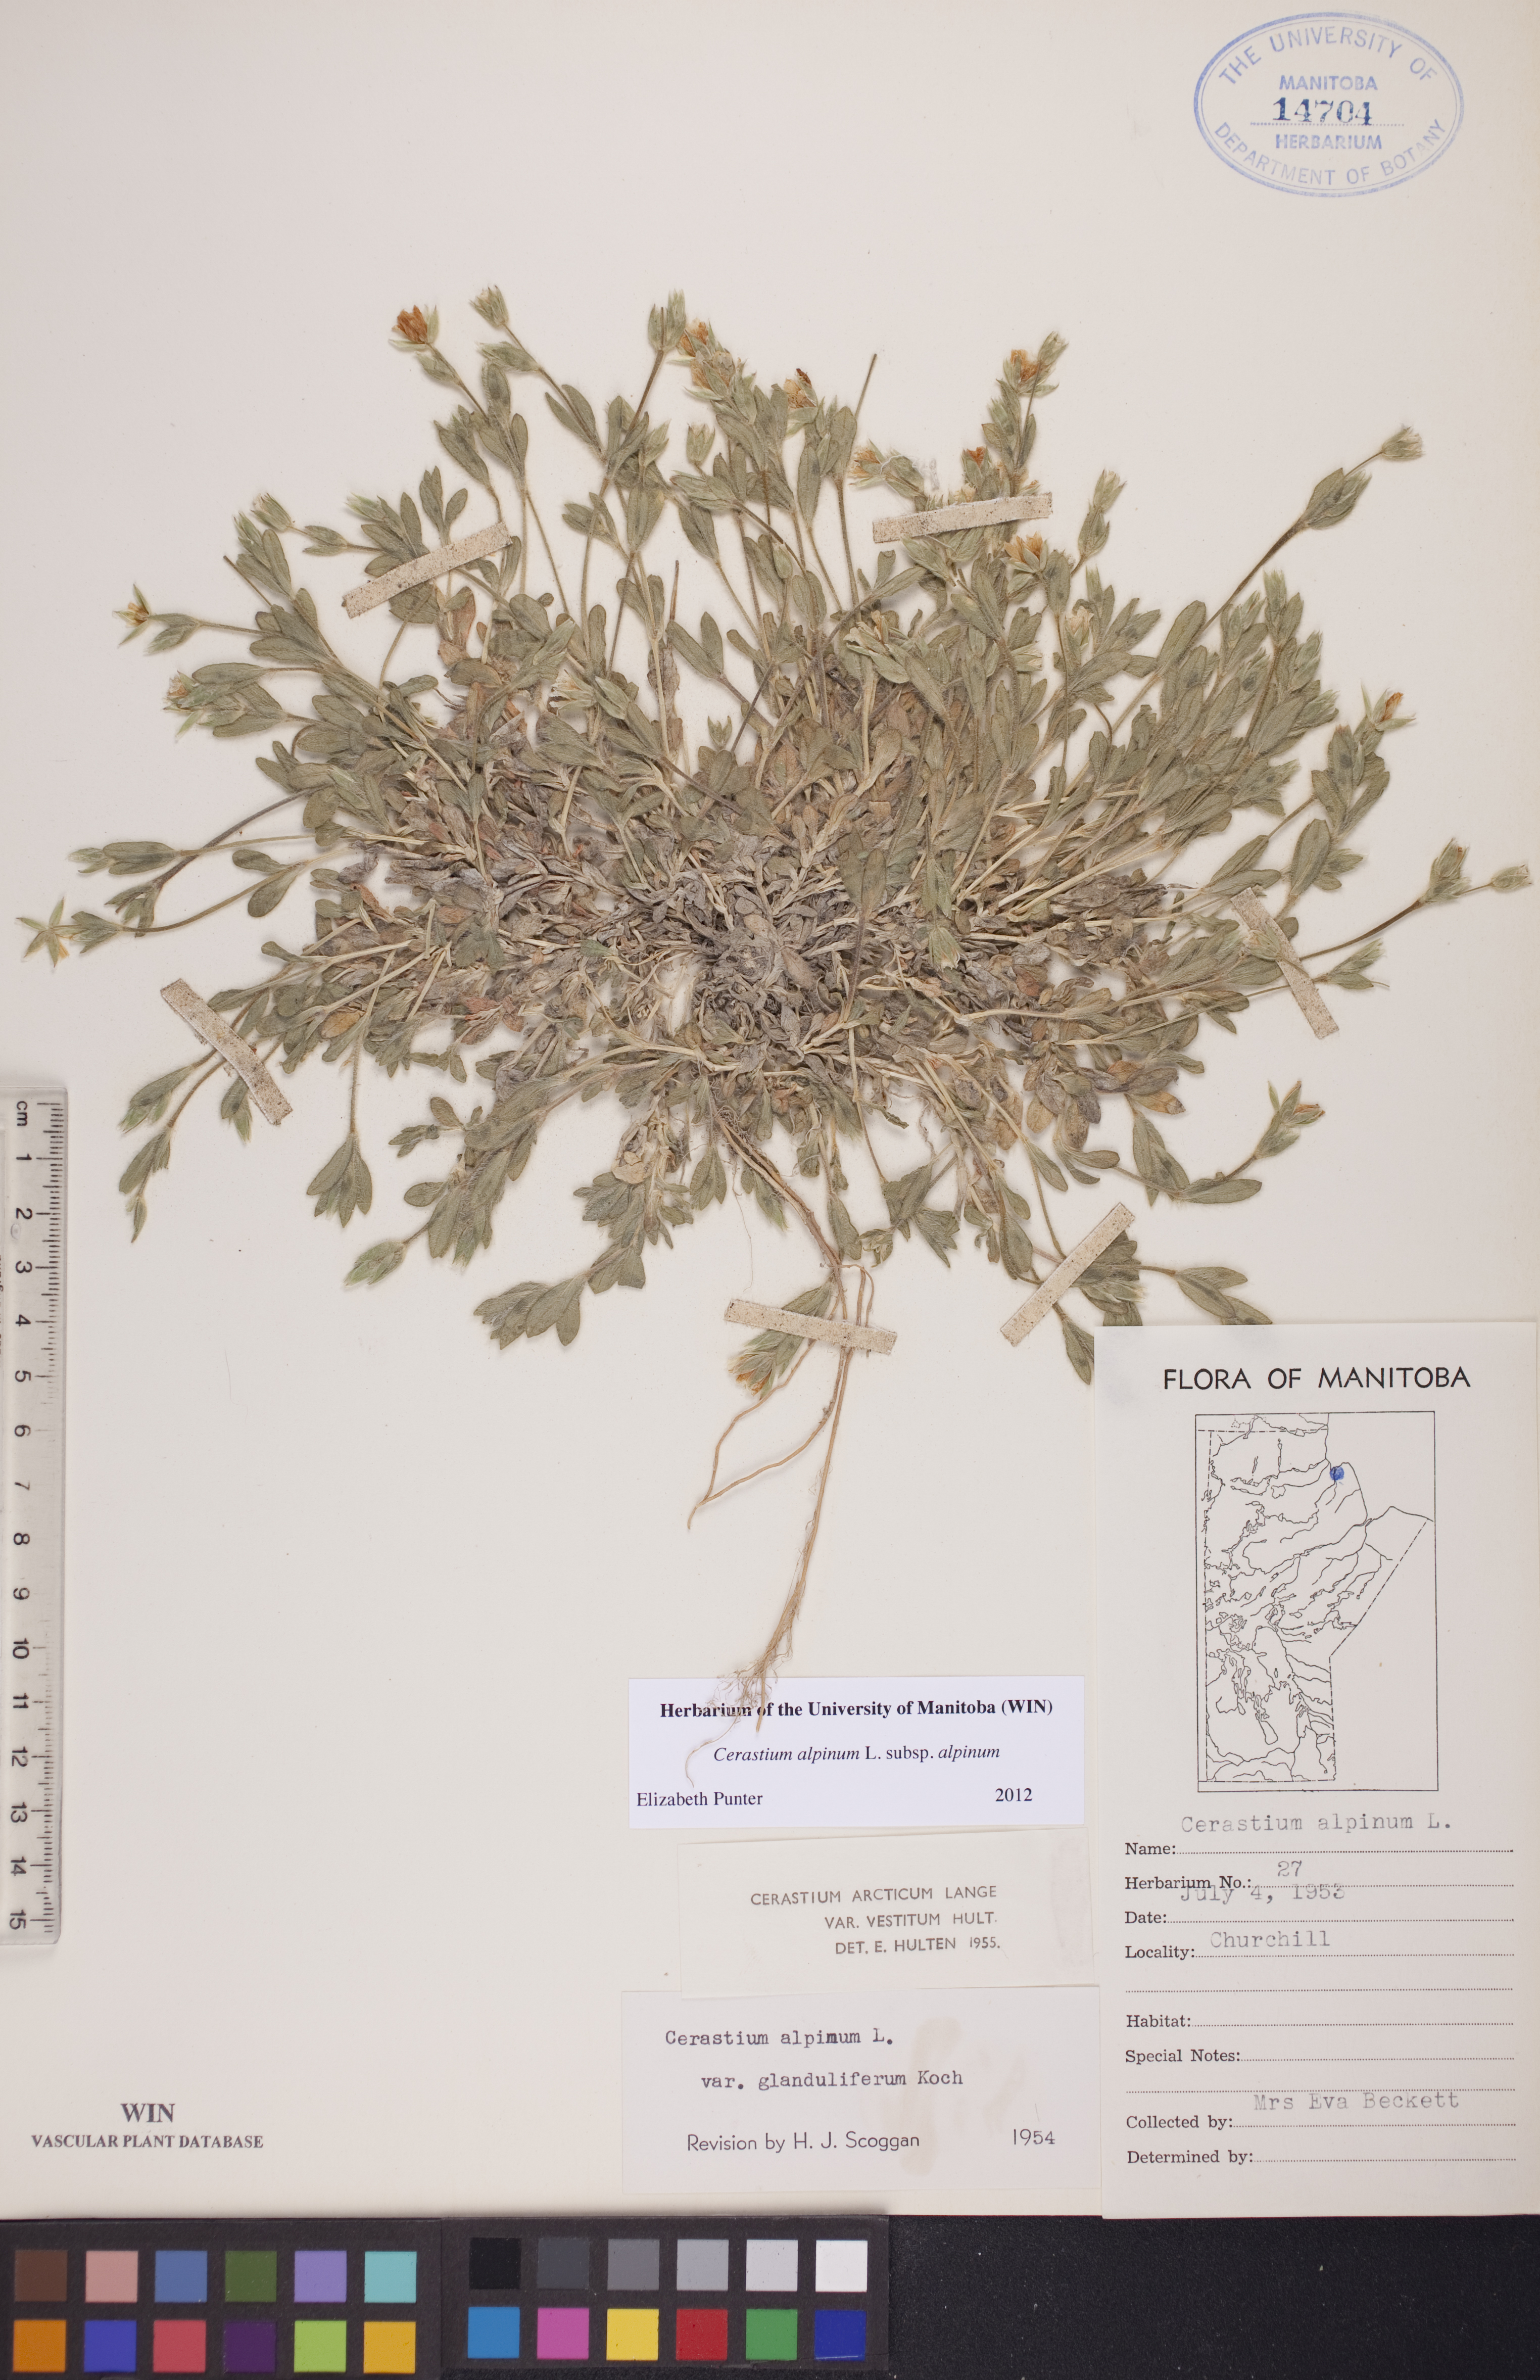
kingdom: Plantae
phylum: Tracheophyta
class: Magnoliopsida
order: Caryophyllales
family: Caryophyllaceae
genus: Cerastium
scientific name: Cerastium alpinum
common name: Alpine mouse-ear
